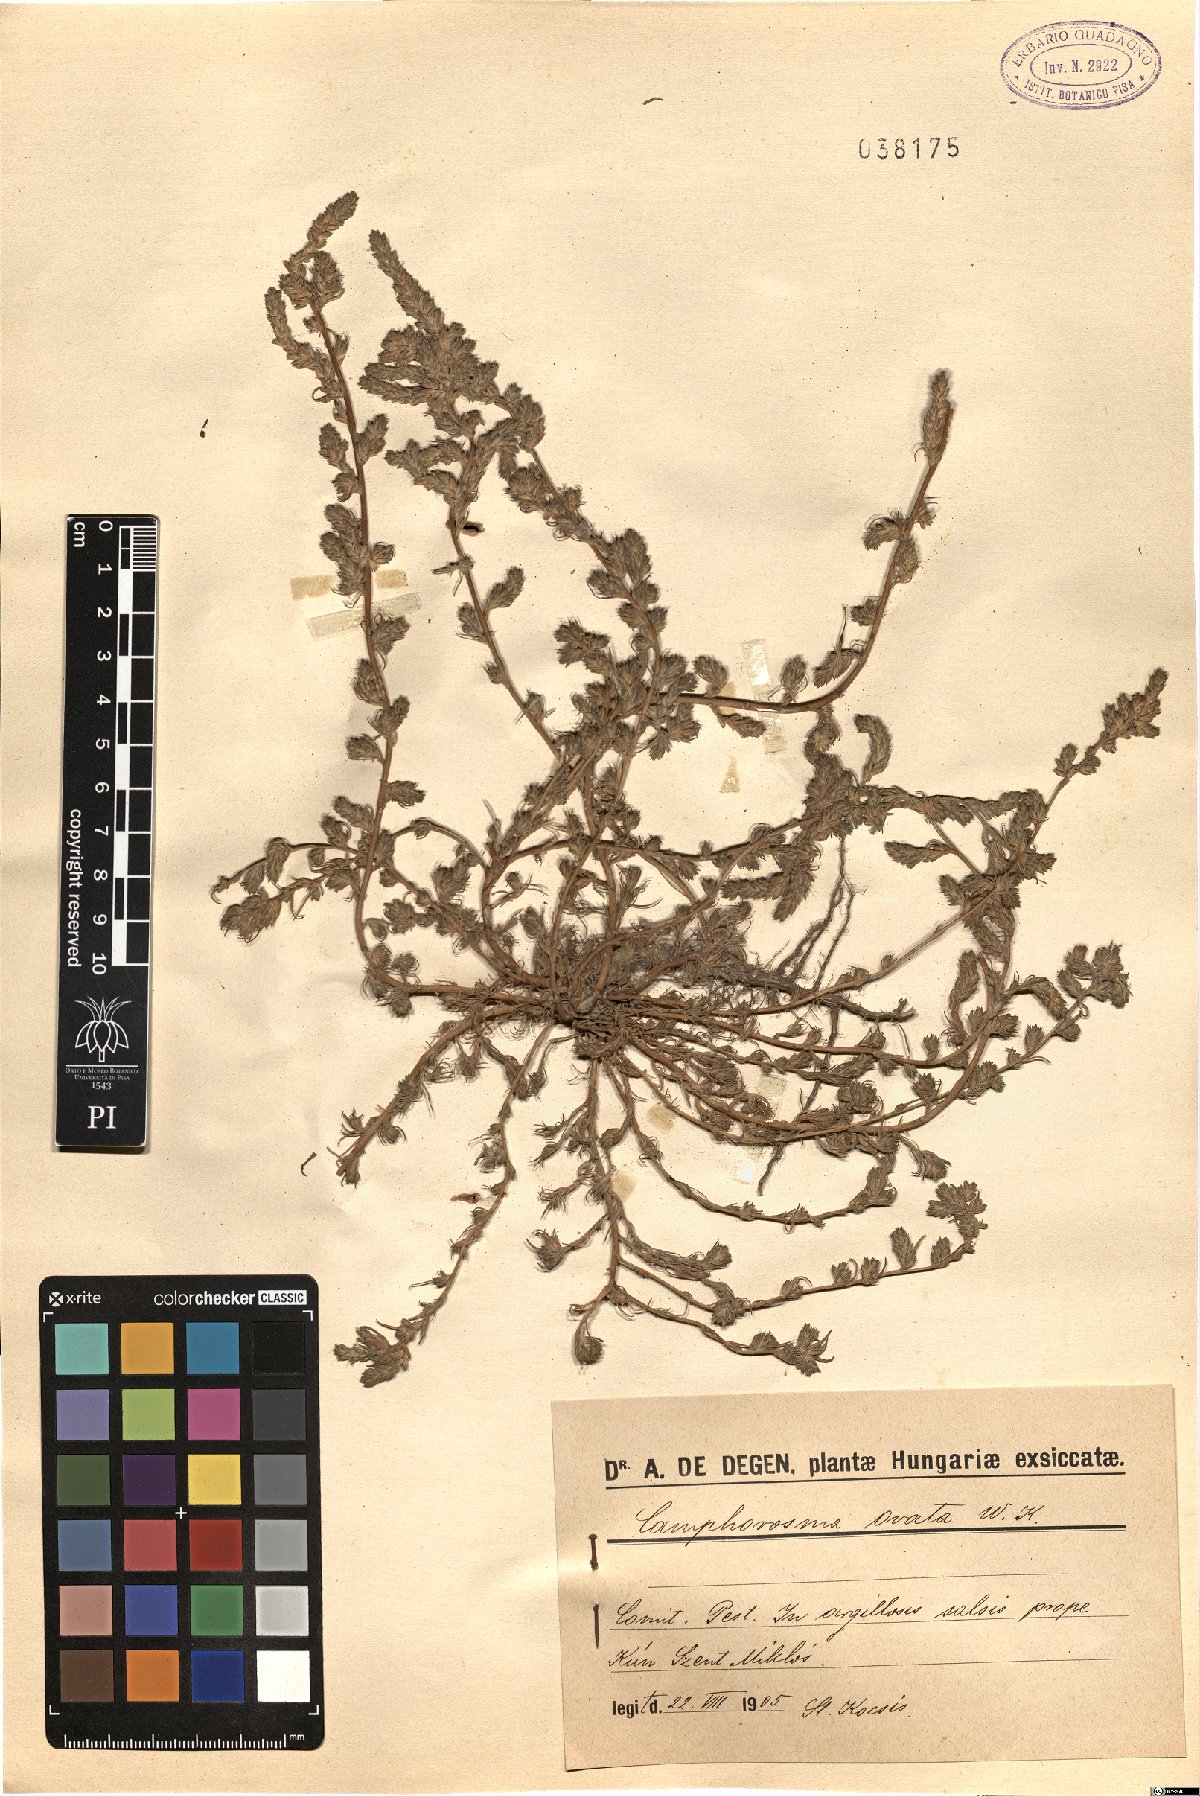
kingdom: Plantae
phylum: Tracheophyta
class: Magnoliopsida
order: Caryophyllales
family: Amaranthaceae
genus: Camphorosma
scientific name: Camphorosma annua
